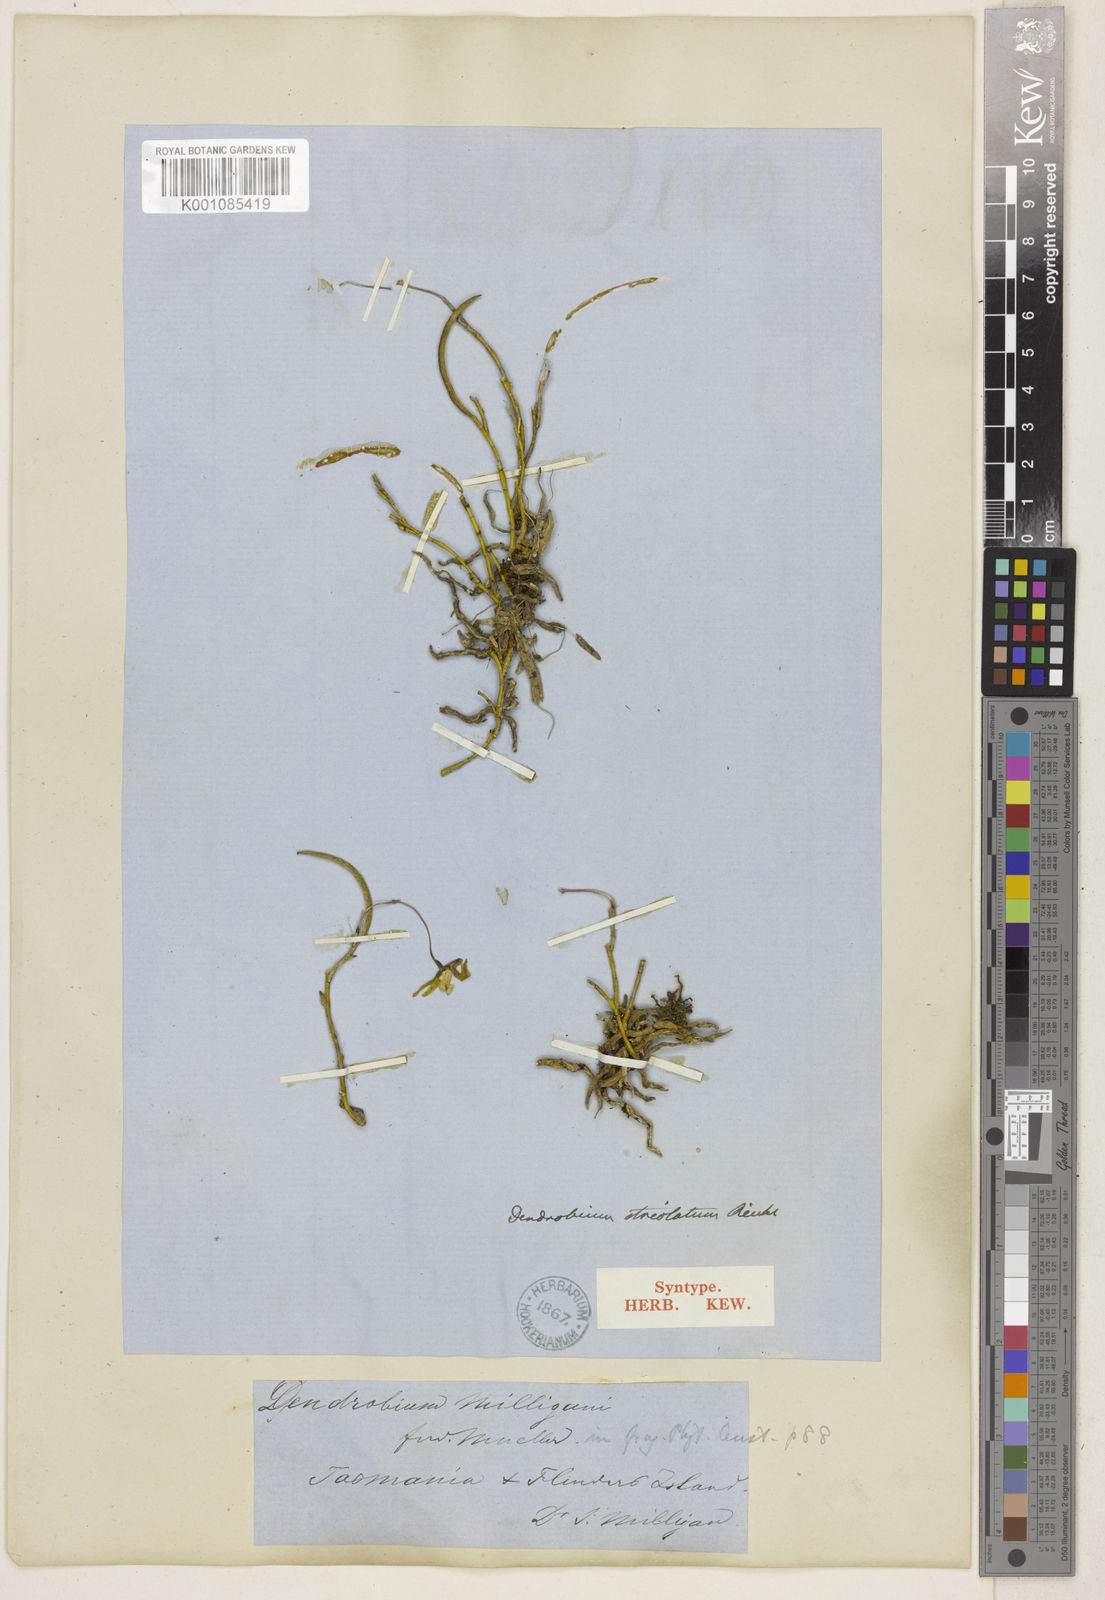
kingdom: Plantae
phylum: Tracheophyta
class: Liliopsida
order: Asparagales
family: Orchidaceae
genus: Dendrobium
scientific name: Dendrobium striolatum
